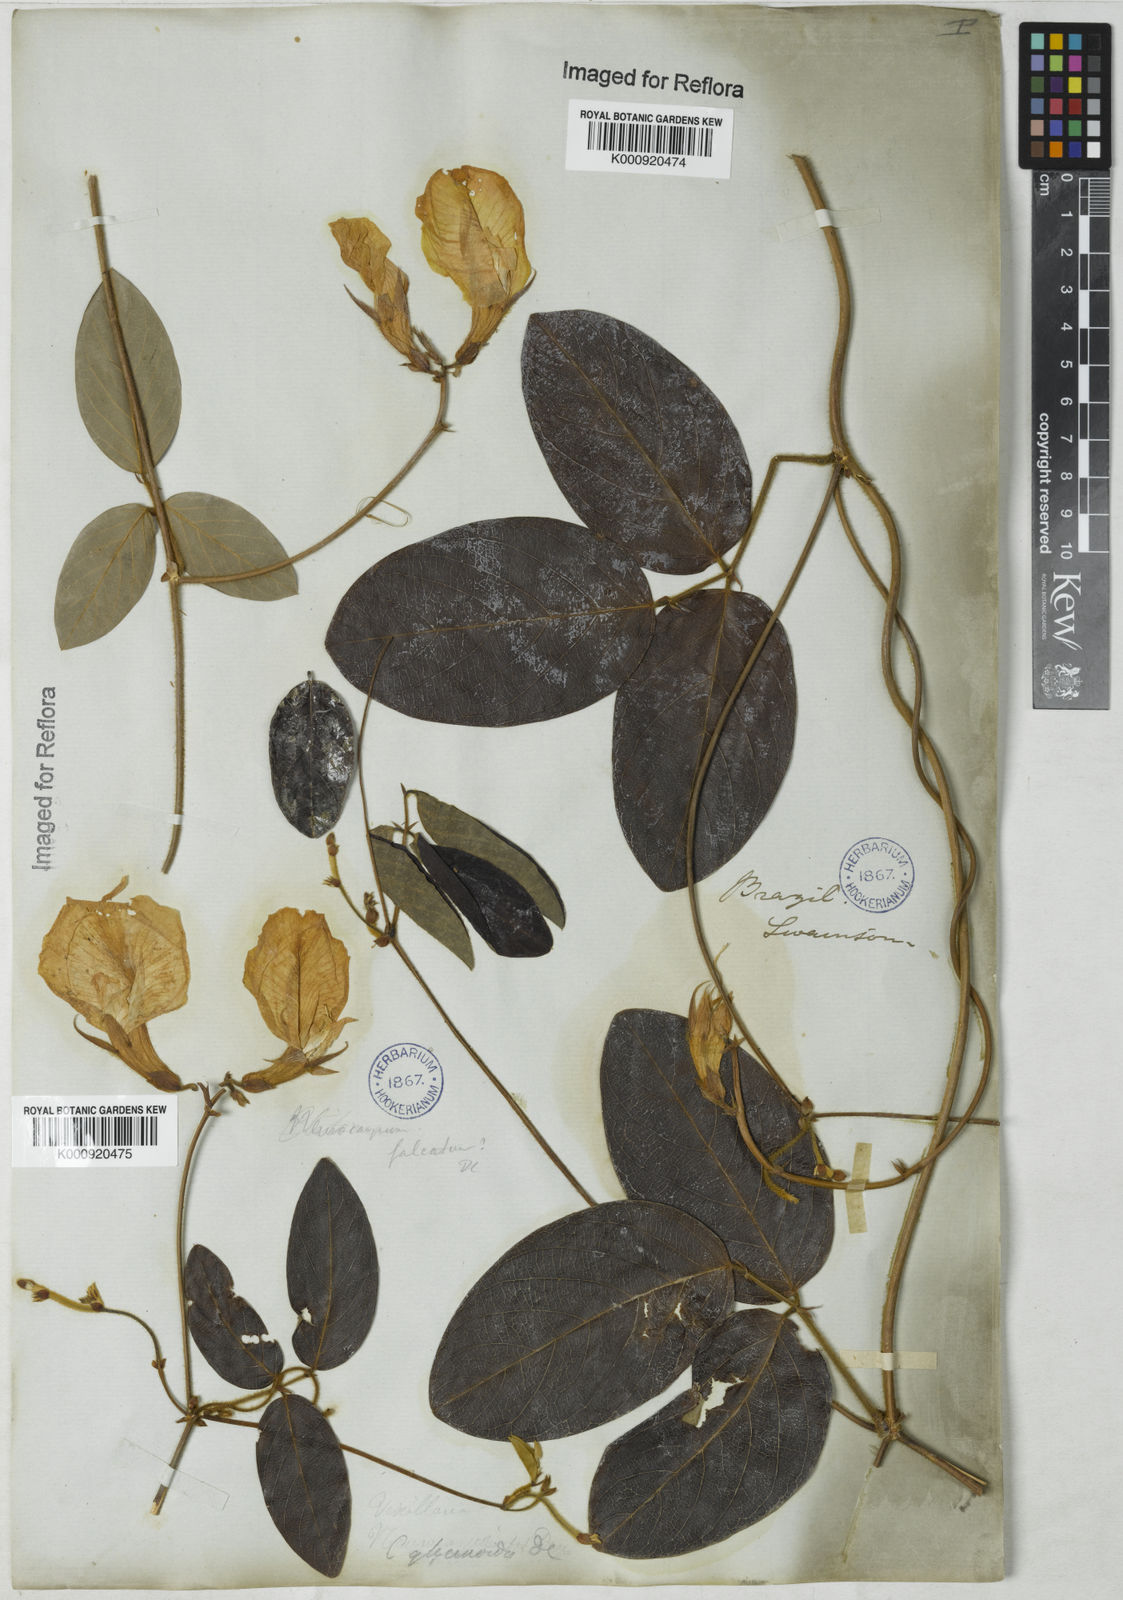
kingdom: Plantae
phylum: Tracheophyta
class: Magnoliopsida
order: Fabales
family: Fabaceae
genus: Clitoria
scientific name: Clitoria
